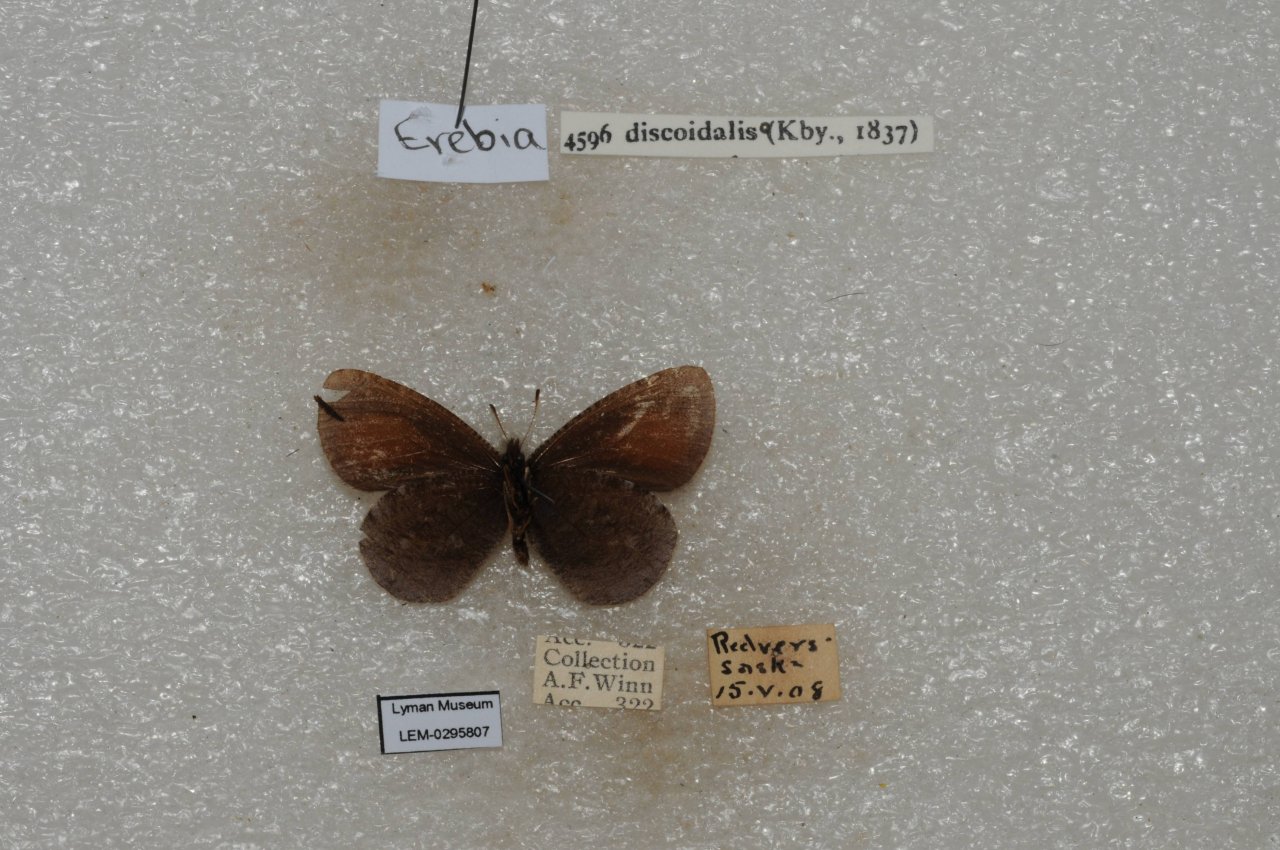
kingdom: Animalia
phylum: Arthropoda
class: Insecta
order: Lepidoptera
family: Nymphalidae
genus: Erebia
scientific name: Erebia discoidalis
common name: Red-disked Alpine
